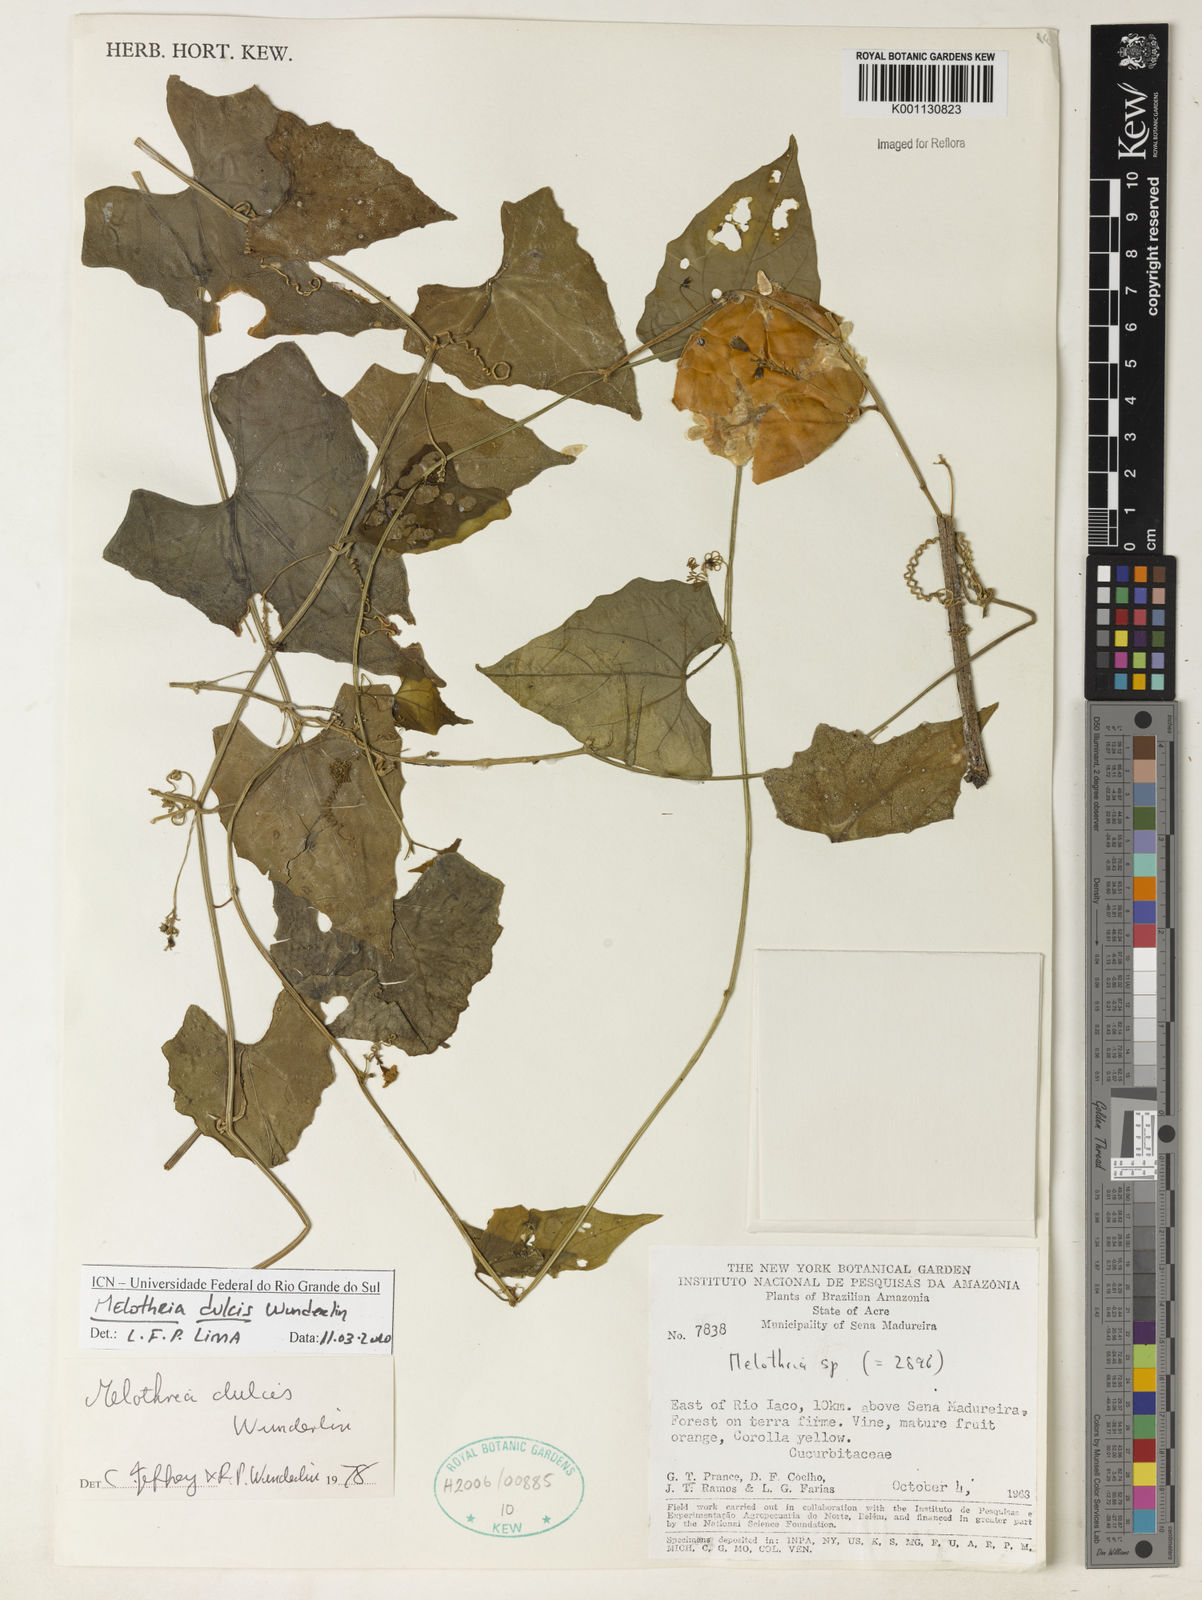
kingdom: Plantae
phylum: Tracheophyta
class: Magnoliopsida
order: Cucurbitales
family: Cucurbitaceae
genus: Melothria
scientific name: Melothria dulcis
